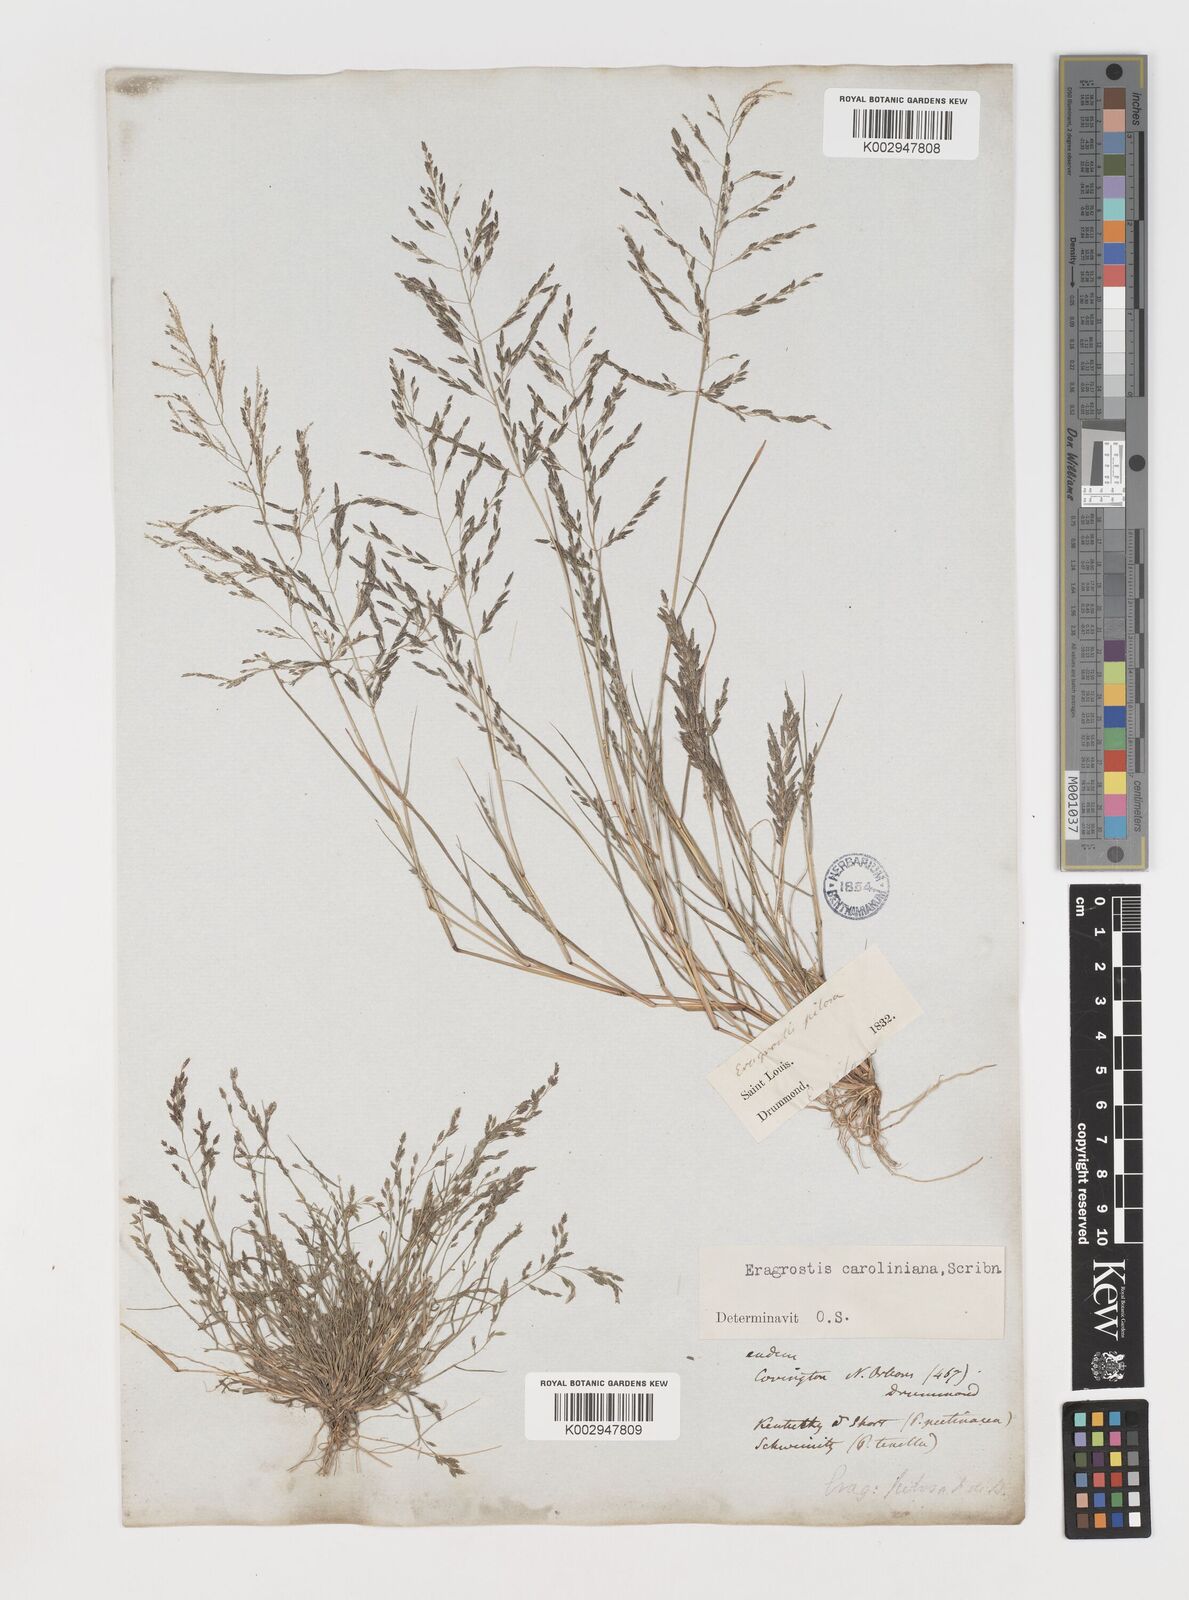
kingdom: Plantae
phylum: Tracheophyta
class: Liliopsida
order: Poales
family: Poaceae
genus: Eragrostis
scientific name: Eragrostis pectinacea
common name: Tufted lovegrass
